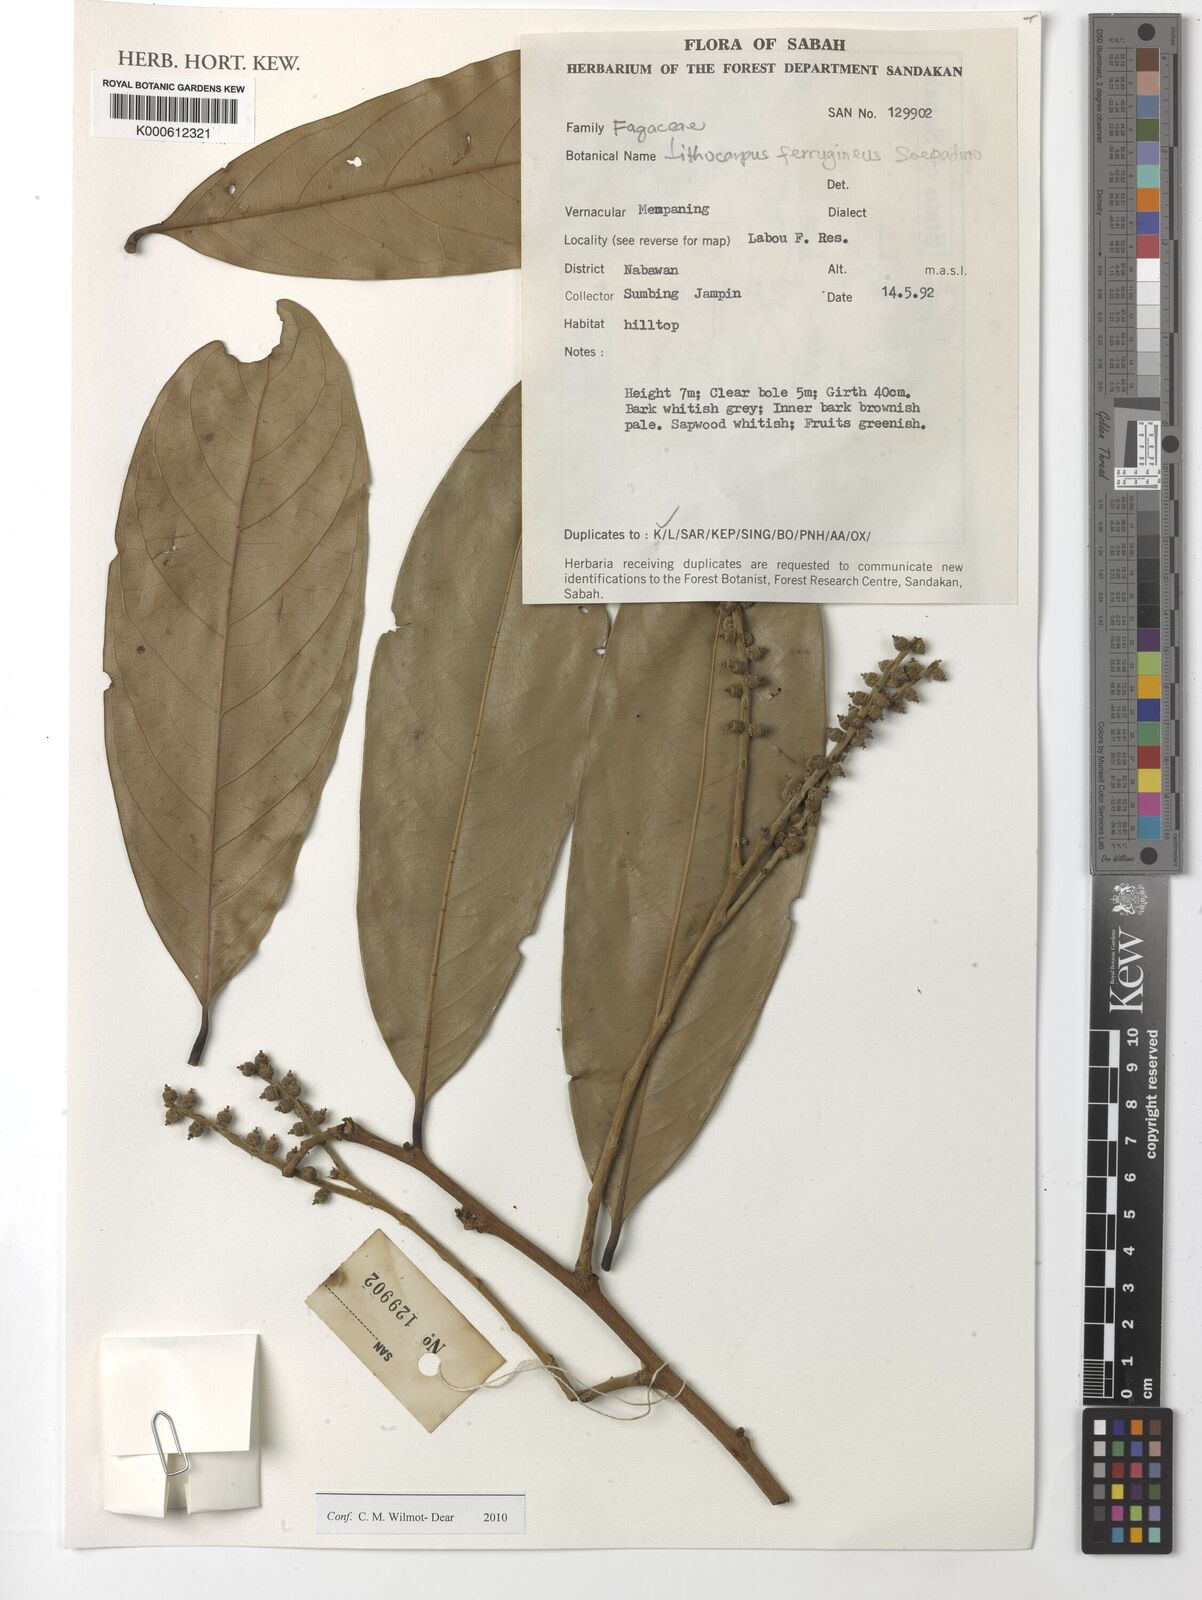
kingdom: Plantae
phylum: Tracheophyta
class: Magnoliopsida
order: Fagales
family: Fagaceae
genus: Lithocarpus
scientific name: Lithocarpus ferrugineus
